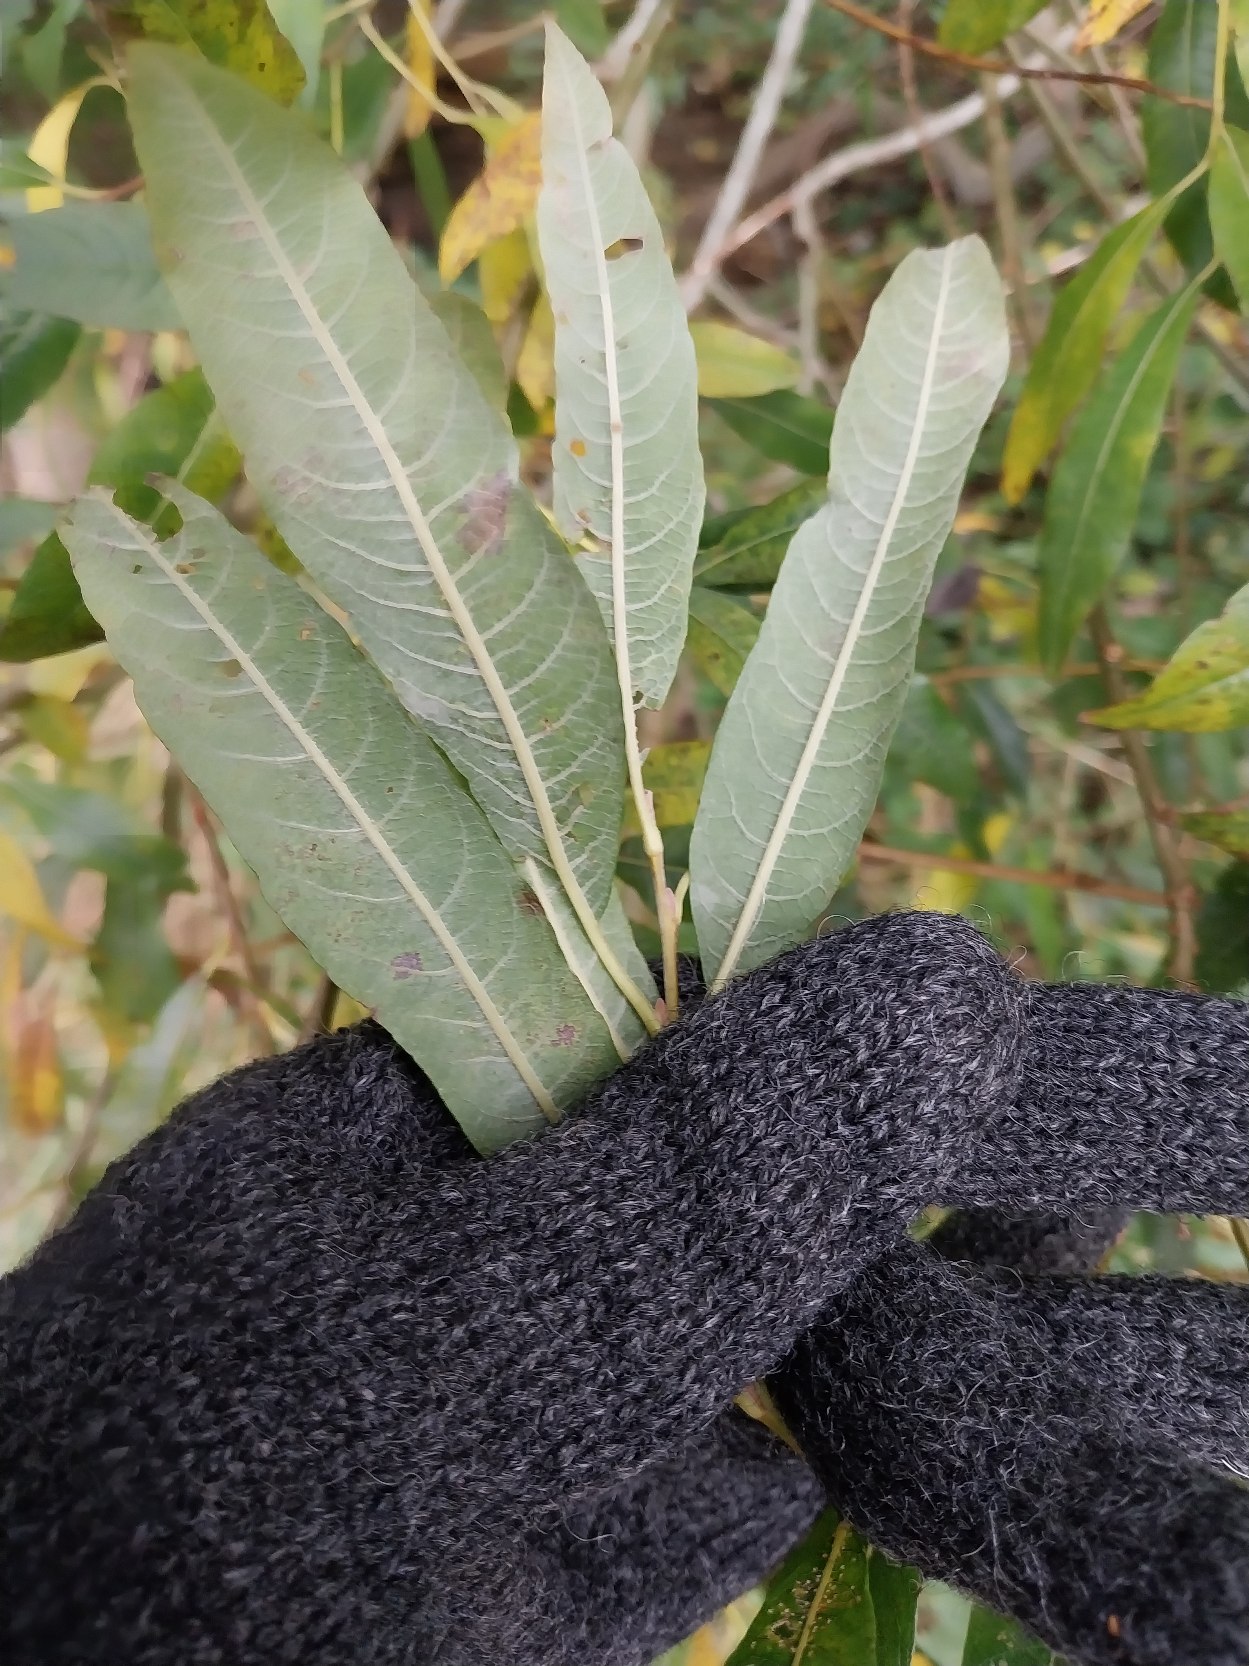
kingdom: Plantae
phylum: Tracheophyta
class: Magnoliopsida
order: Malpighiales
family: Salicaceae
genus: Salix
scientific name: Salix smithiana
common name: Lancet-pil
